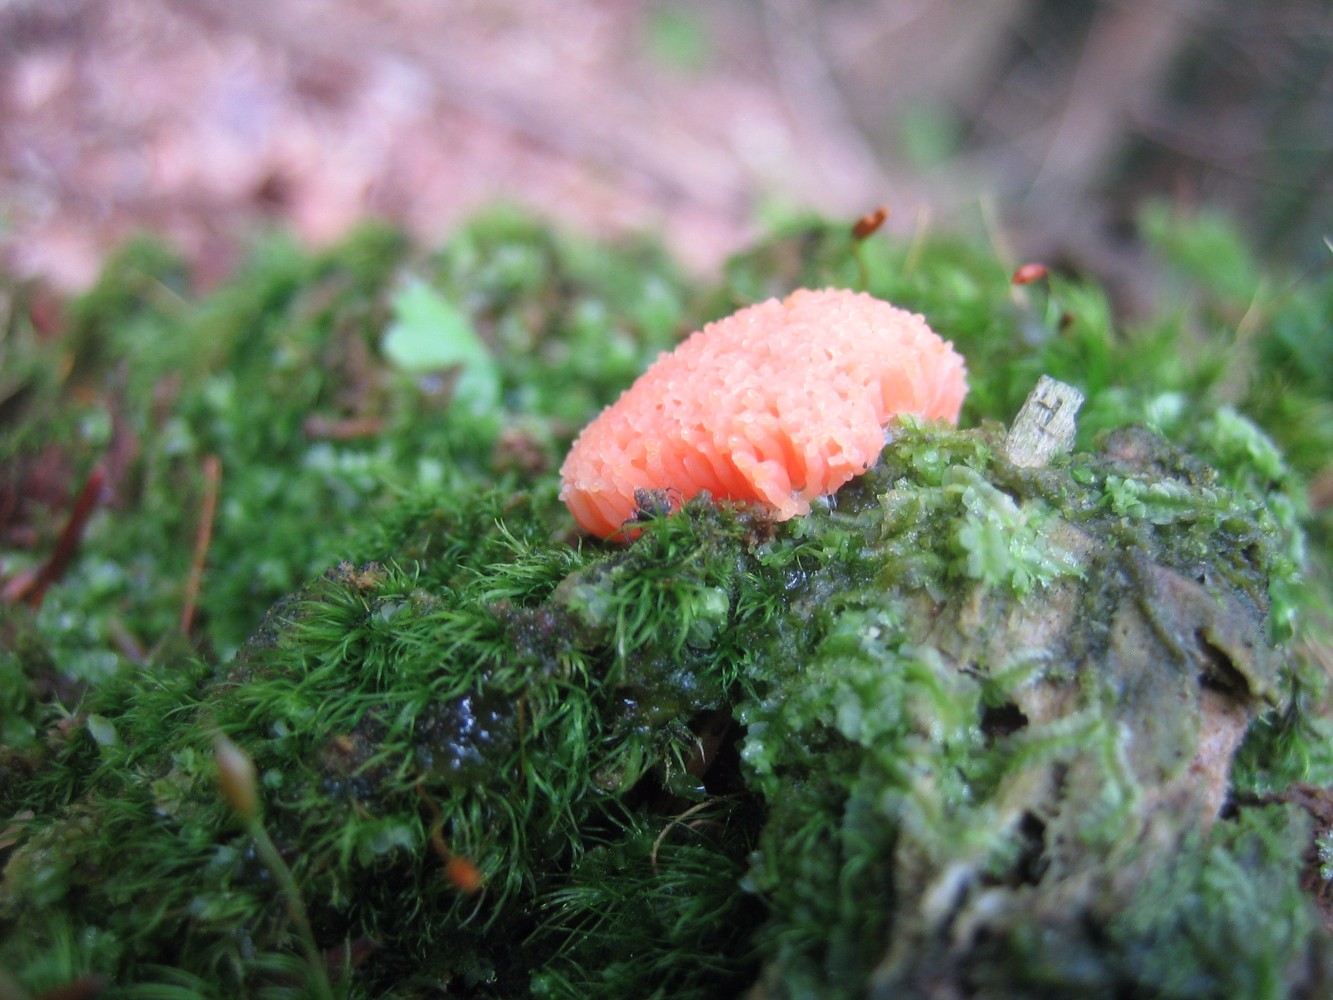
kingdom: Protozoa
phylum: Mycetozoa
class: Myxomycetes
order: Cribrariales
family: Tubiferaceae
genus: Tubifera
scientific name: Tubifera ferruginosa
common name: kanel-støvrør
